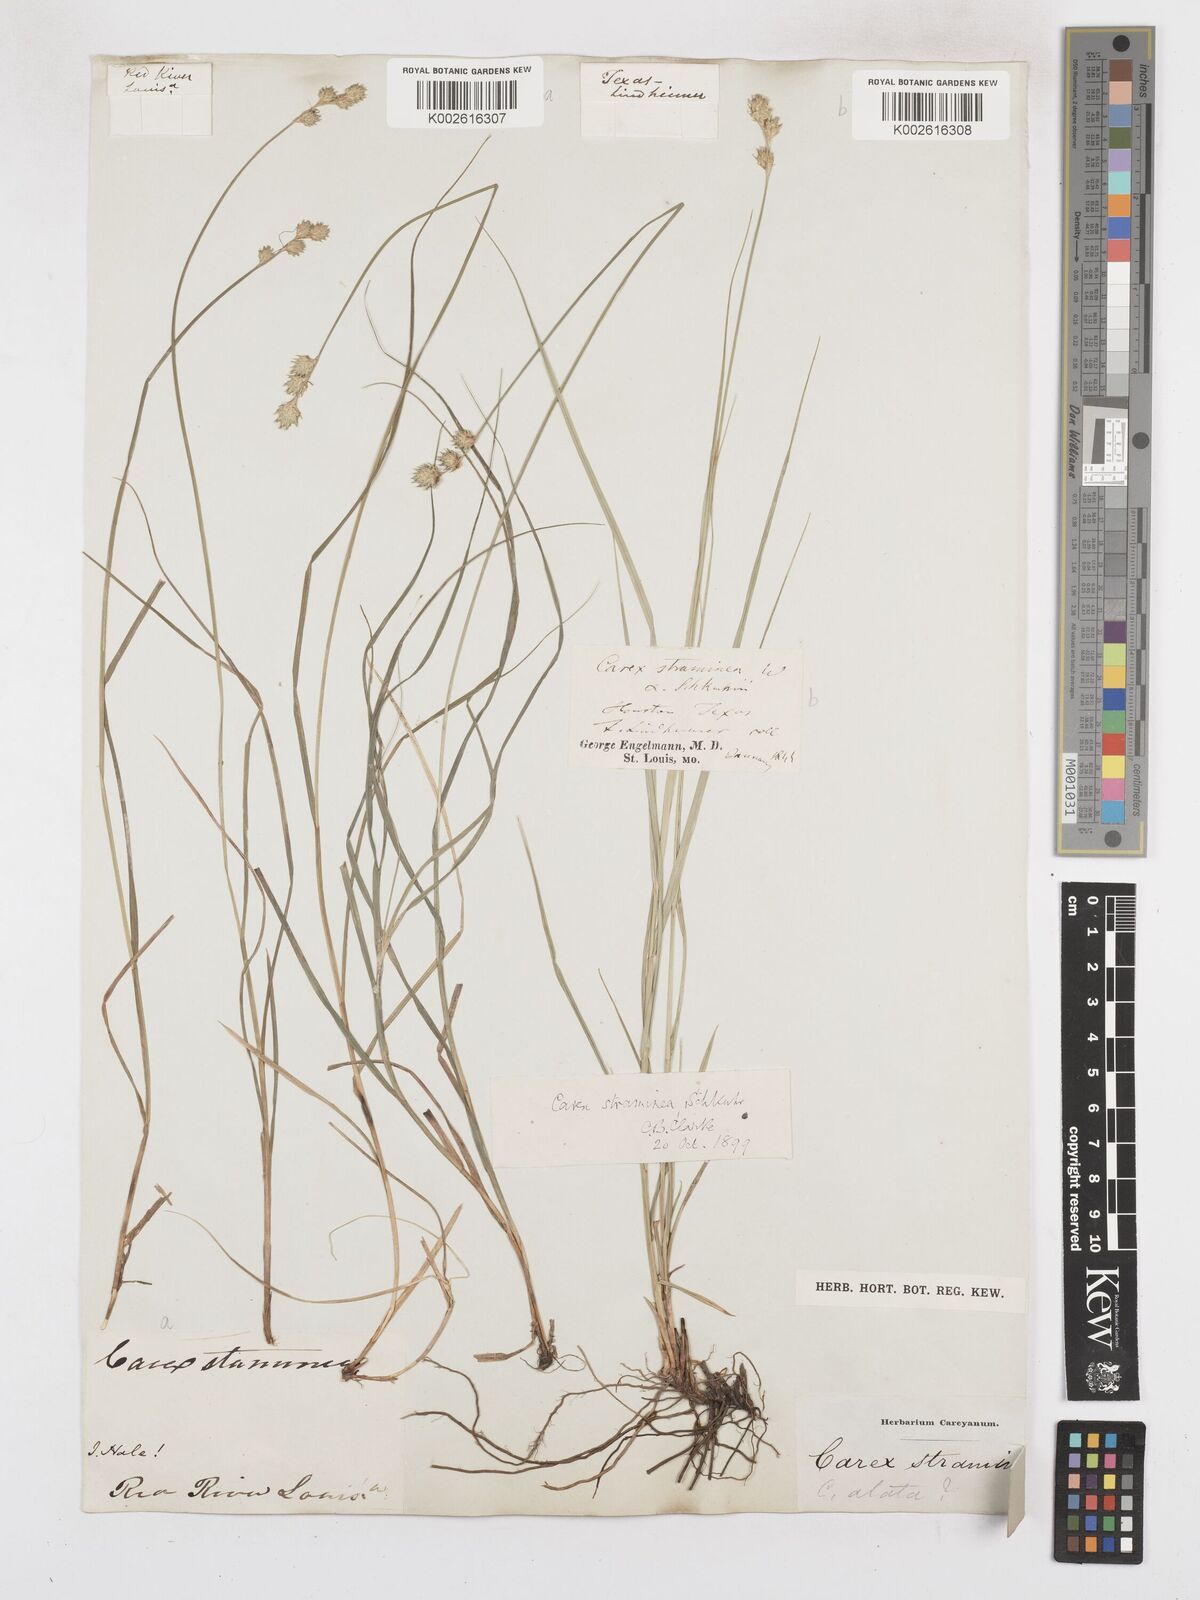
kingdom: Plantae
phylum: Tracheophyta
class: Liliopsida
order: Poales
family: Cyperaceae
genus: Carex
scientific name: Carex albolutescens
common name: Freenish white sedge
